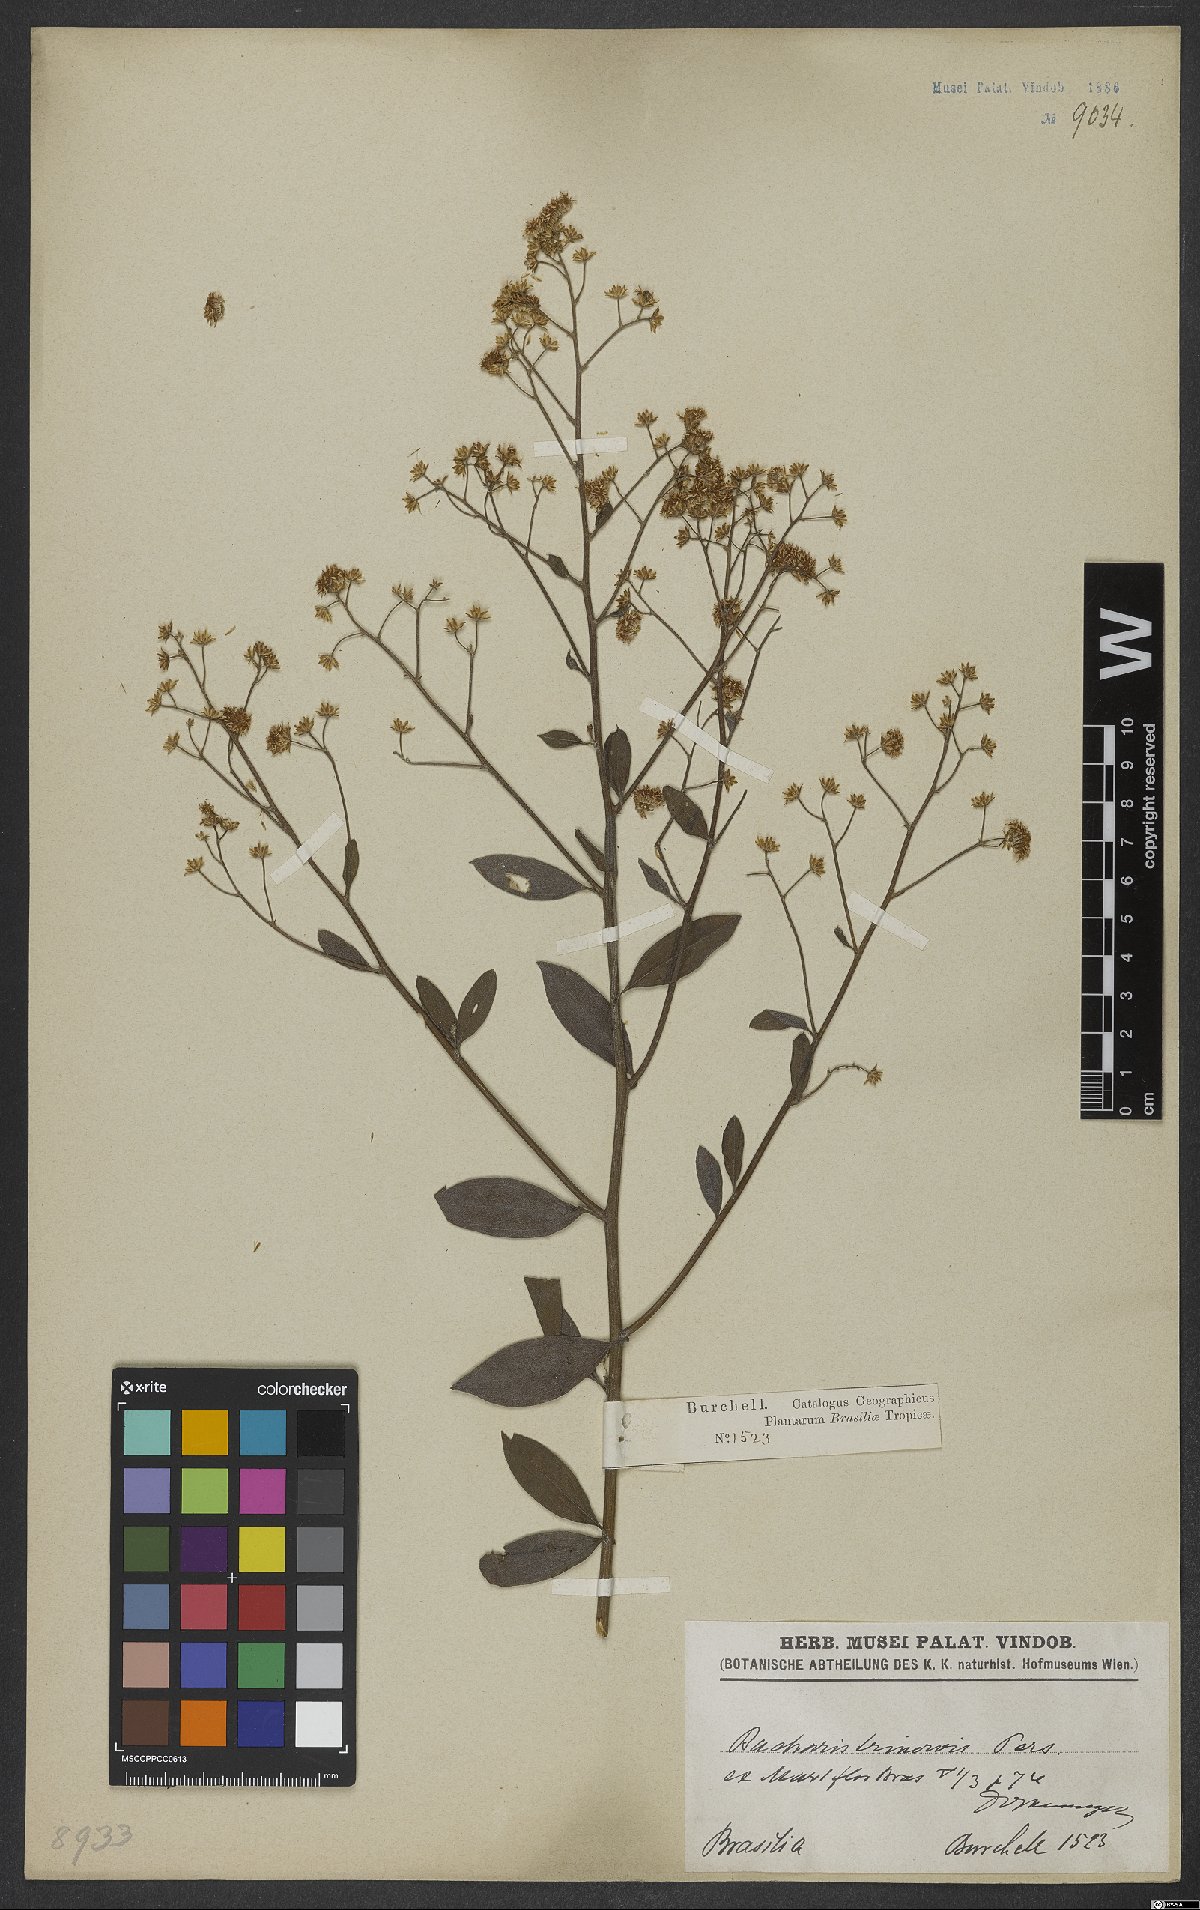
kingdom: Plantae
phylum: Tracheophyta
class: Magnoliopsida
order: Asterales
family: Asteraceae
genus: Baccharis
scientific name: Baccharis trinervis
